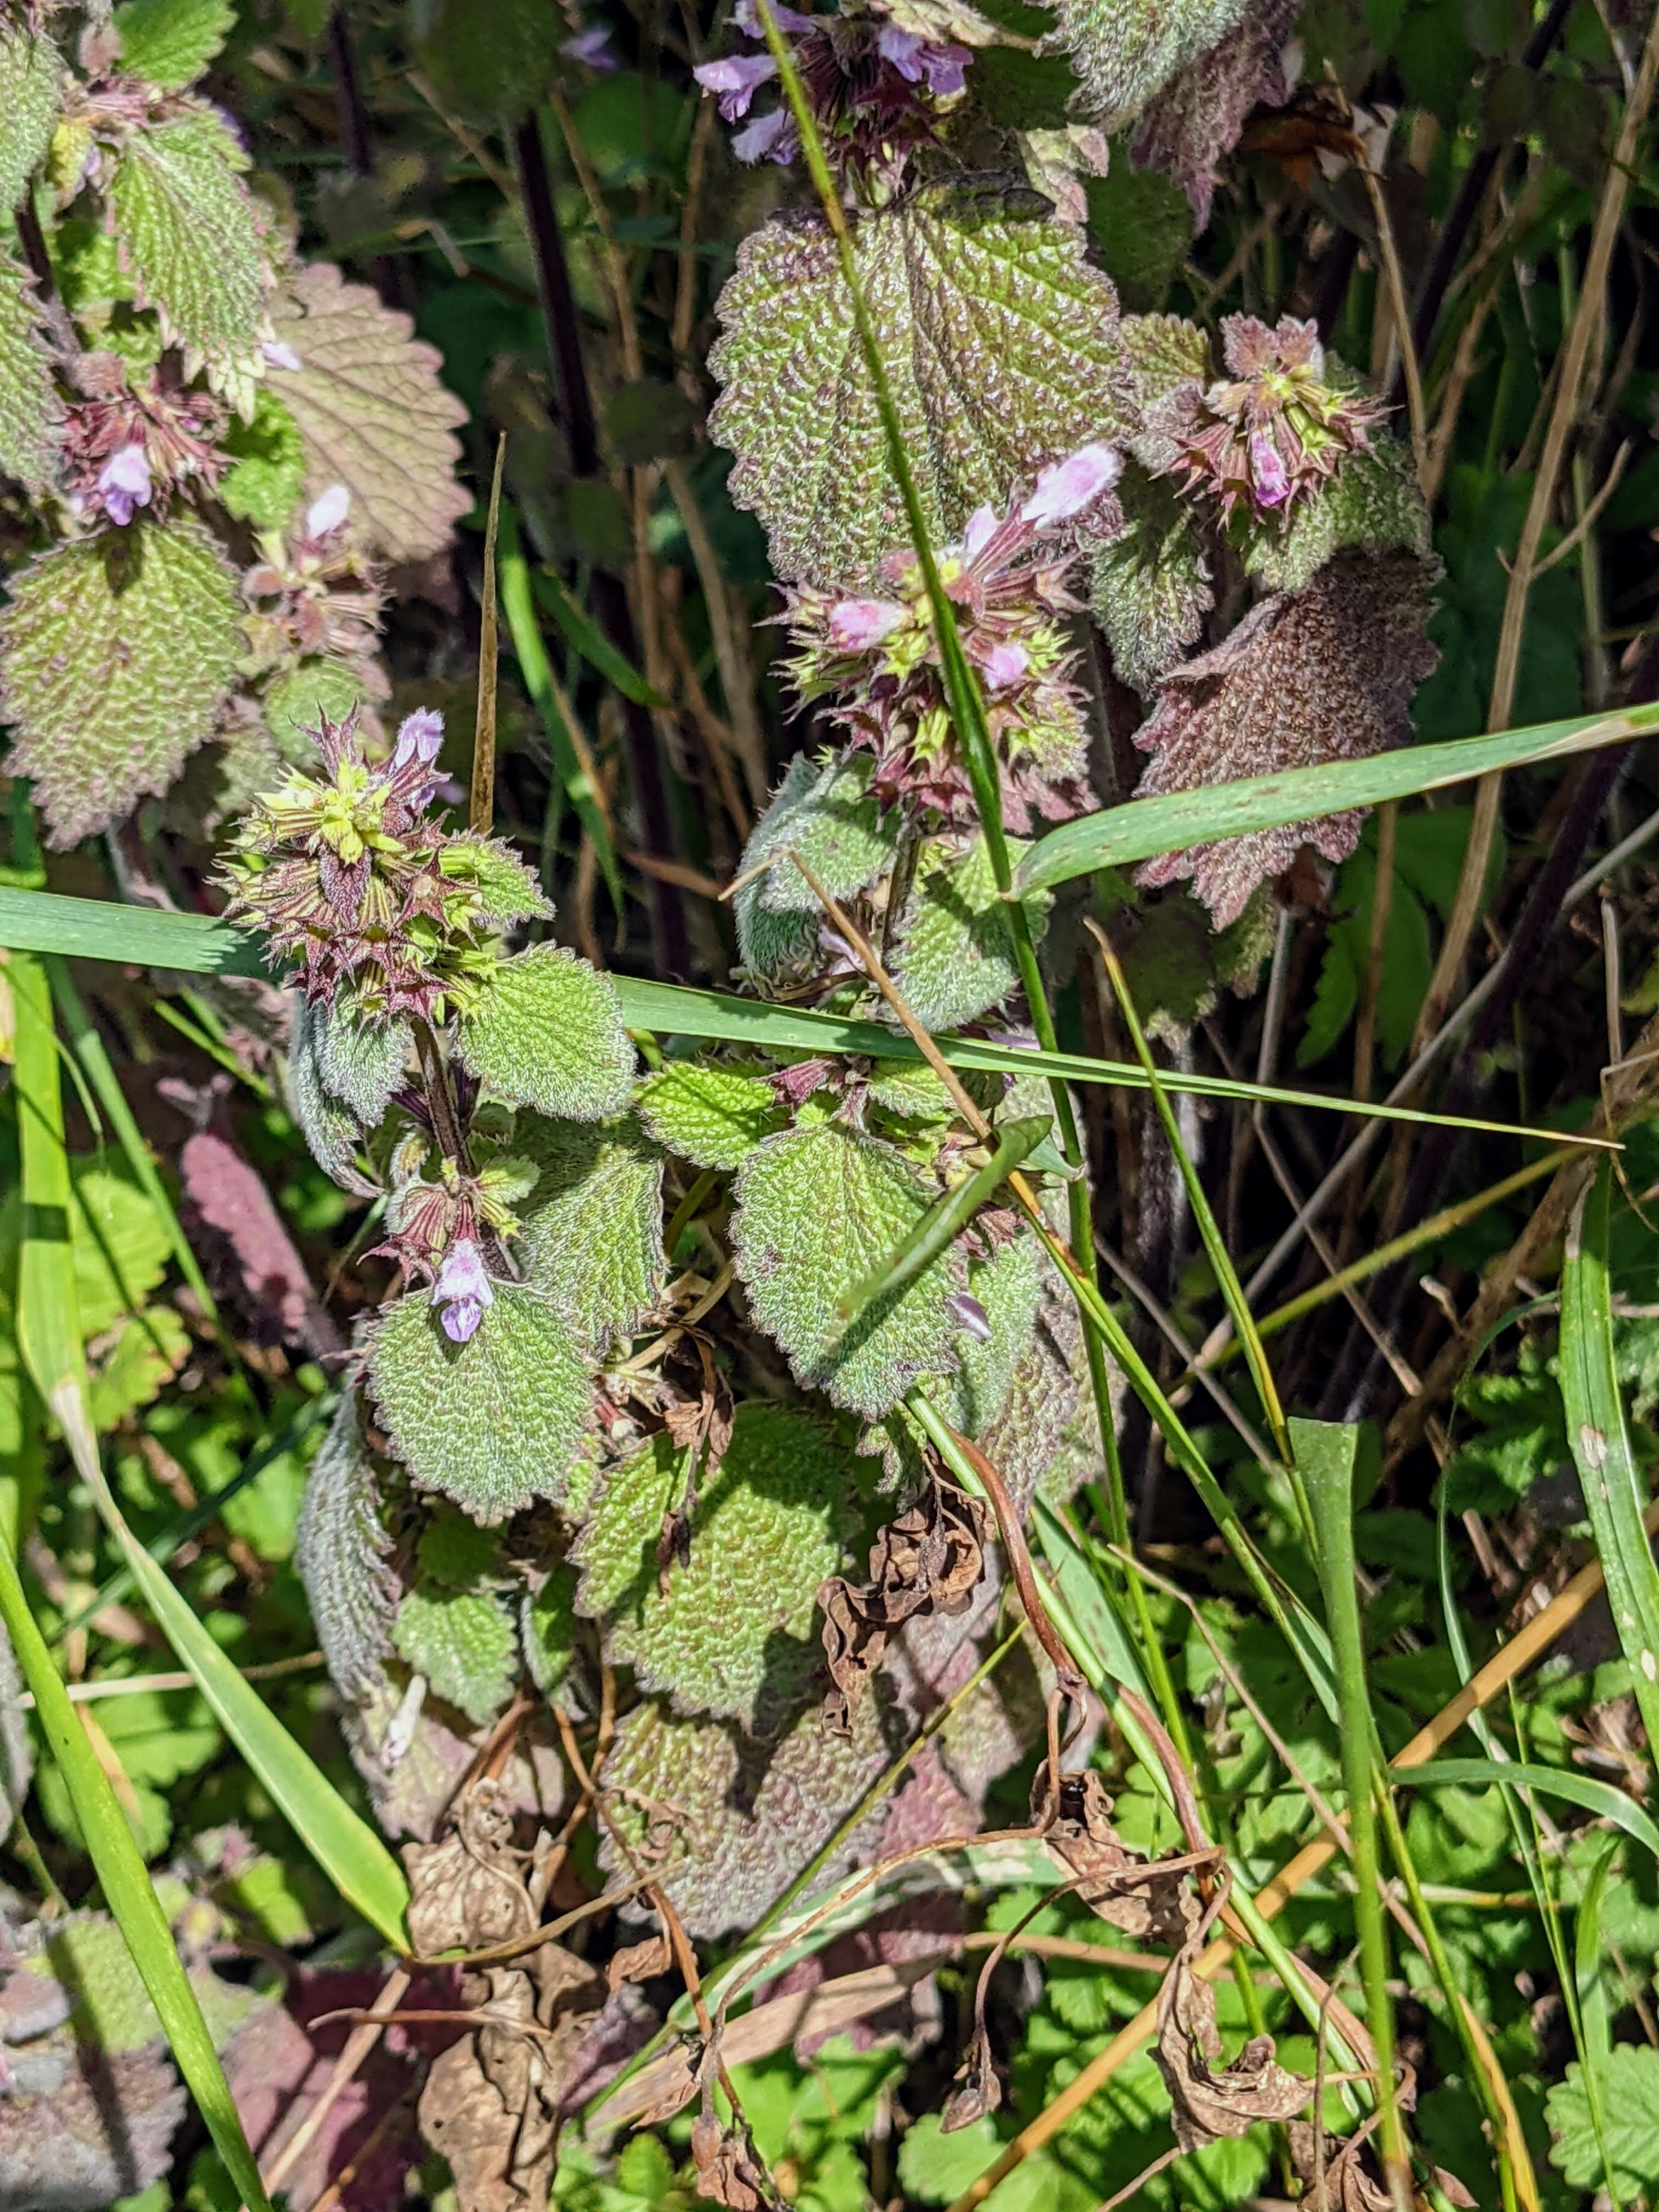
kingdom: Plantae
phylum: Tracheophyta
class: Magnoliopsida
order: Lamiales
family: Lamiaceae
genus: Ballota
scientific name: Ballota nigra
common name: Tandbæger
